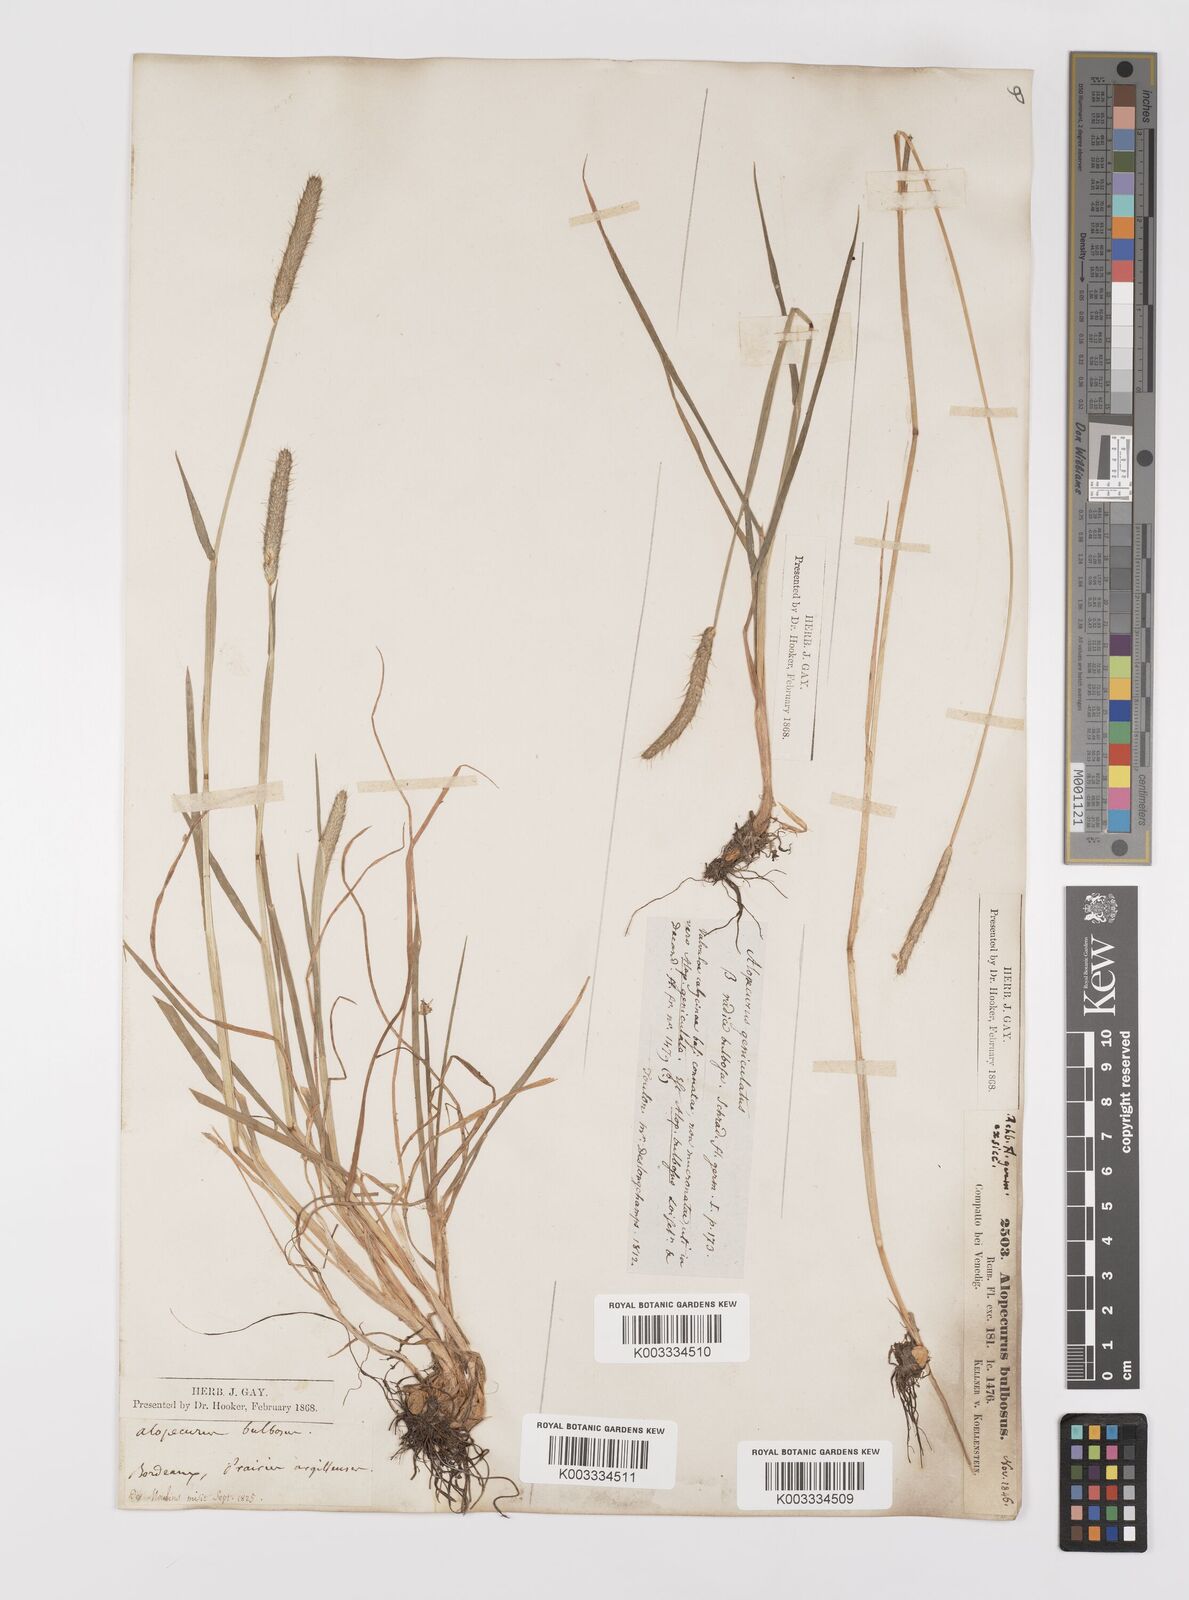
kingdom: Plantae
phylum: Tracheophyta
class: Liliopsida
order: Poales
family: Poaceae
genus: Alopecurus
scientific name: Alopecurus bulbosus
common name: Bulbous foxtail
